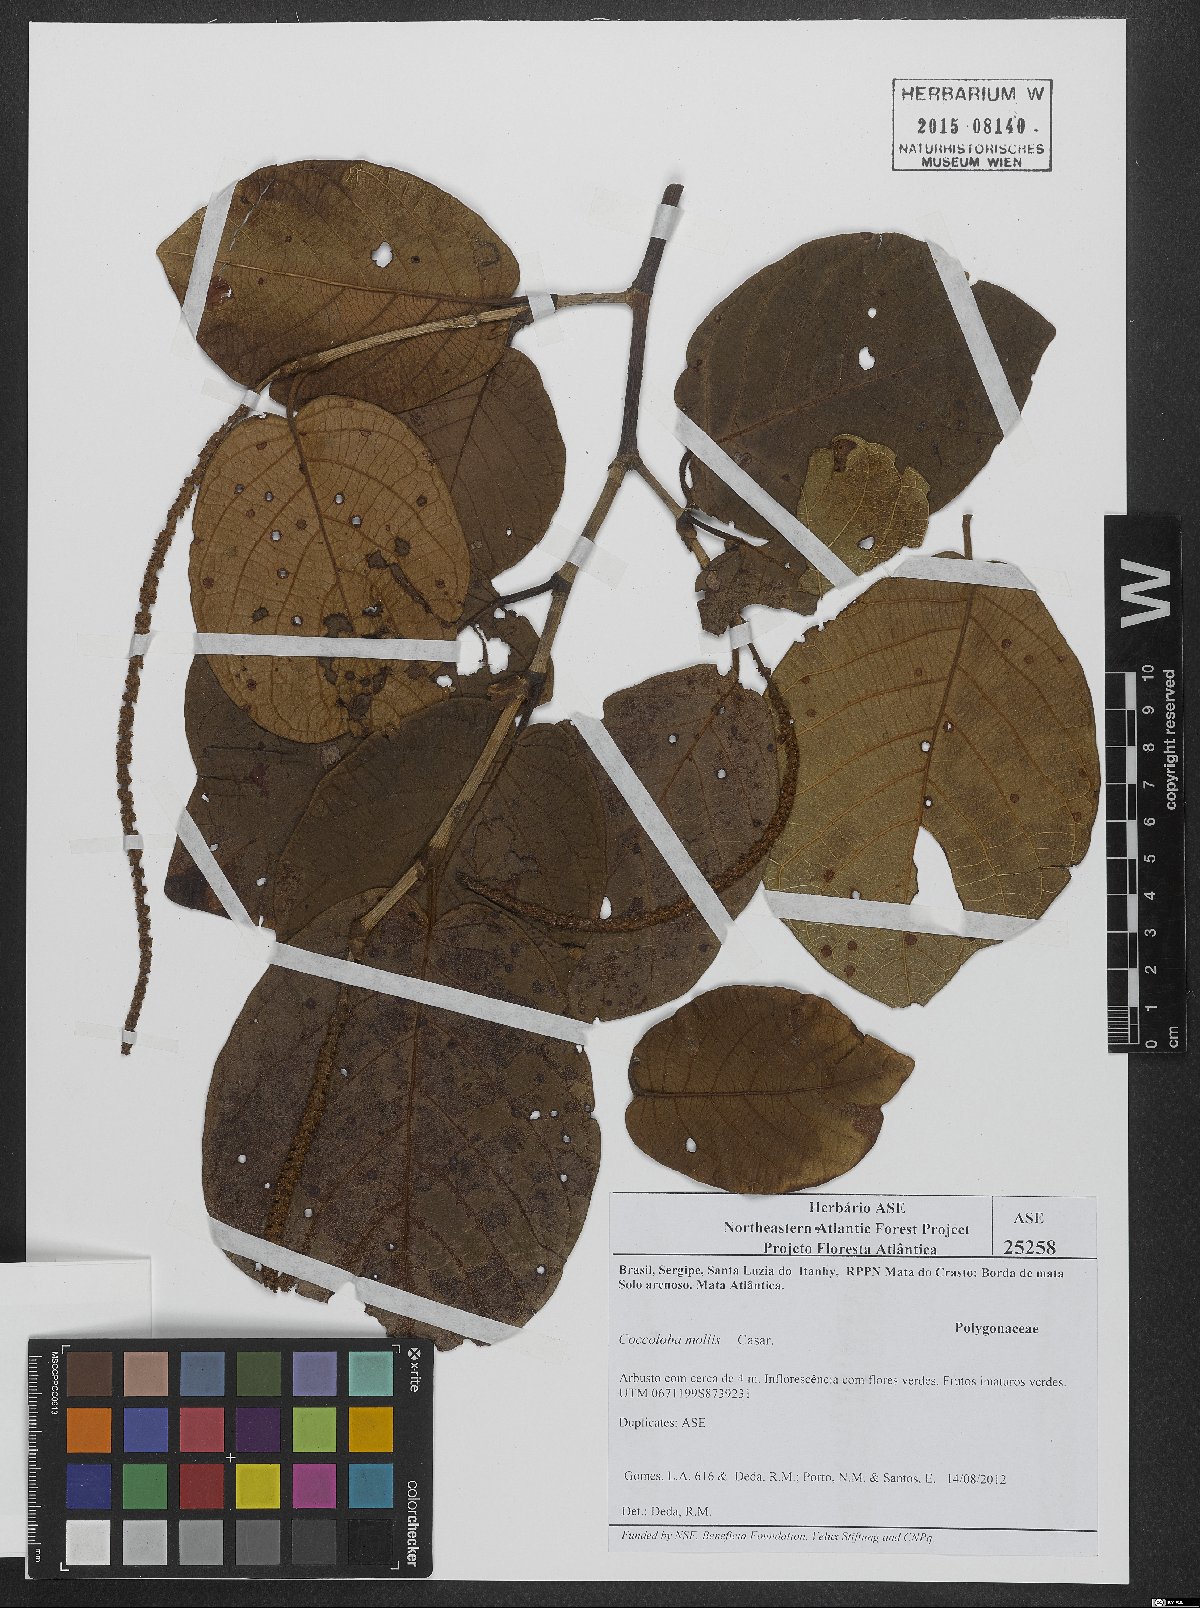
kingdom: Plantae
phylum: Tracheophyta
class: Magnoliopsida
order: Caryophyllales
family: Polygonaceae
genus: Coccoloba
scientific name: Coccoloba mollis
